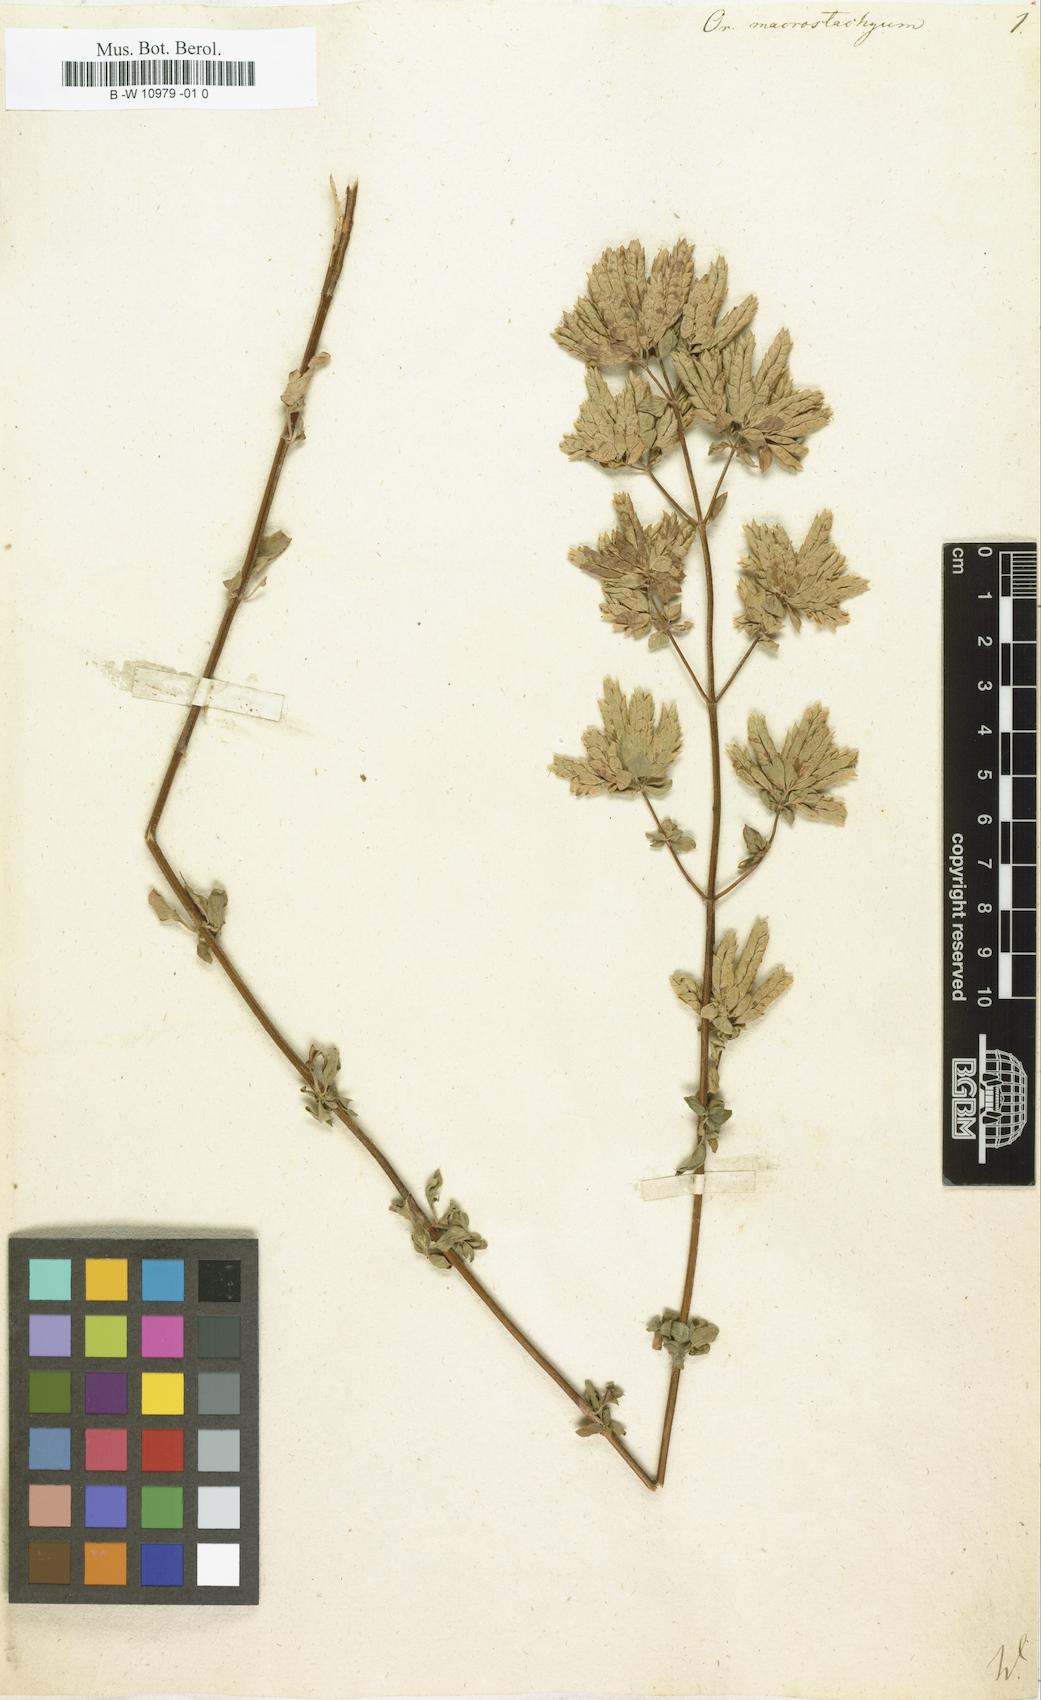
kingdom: Plantae
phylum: Tracheophyta
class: Magnoliopsida
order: Lamiales
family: Lamiaceae
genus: Origanum
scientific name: Origanum vulgare
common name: Wild marjoram
